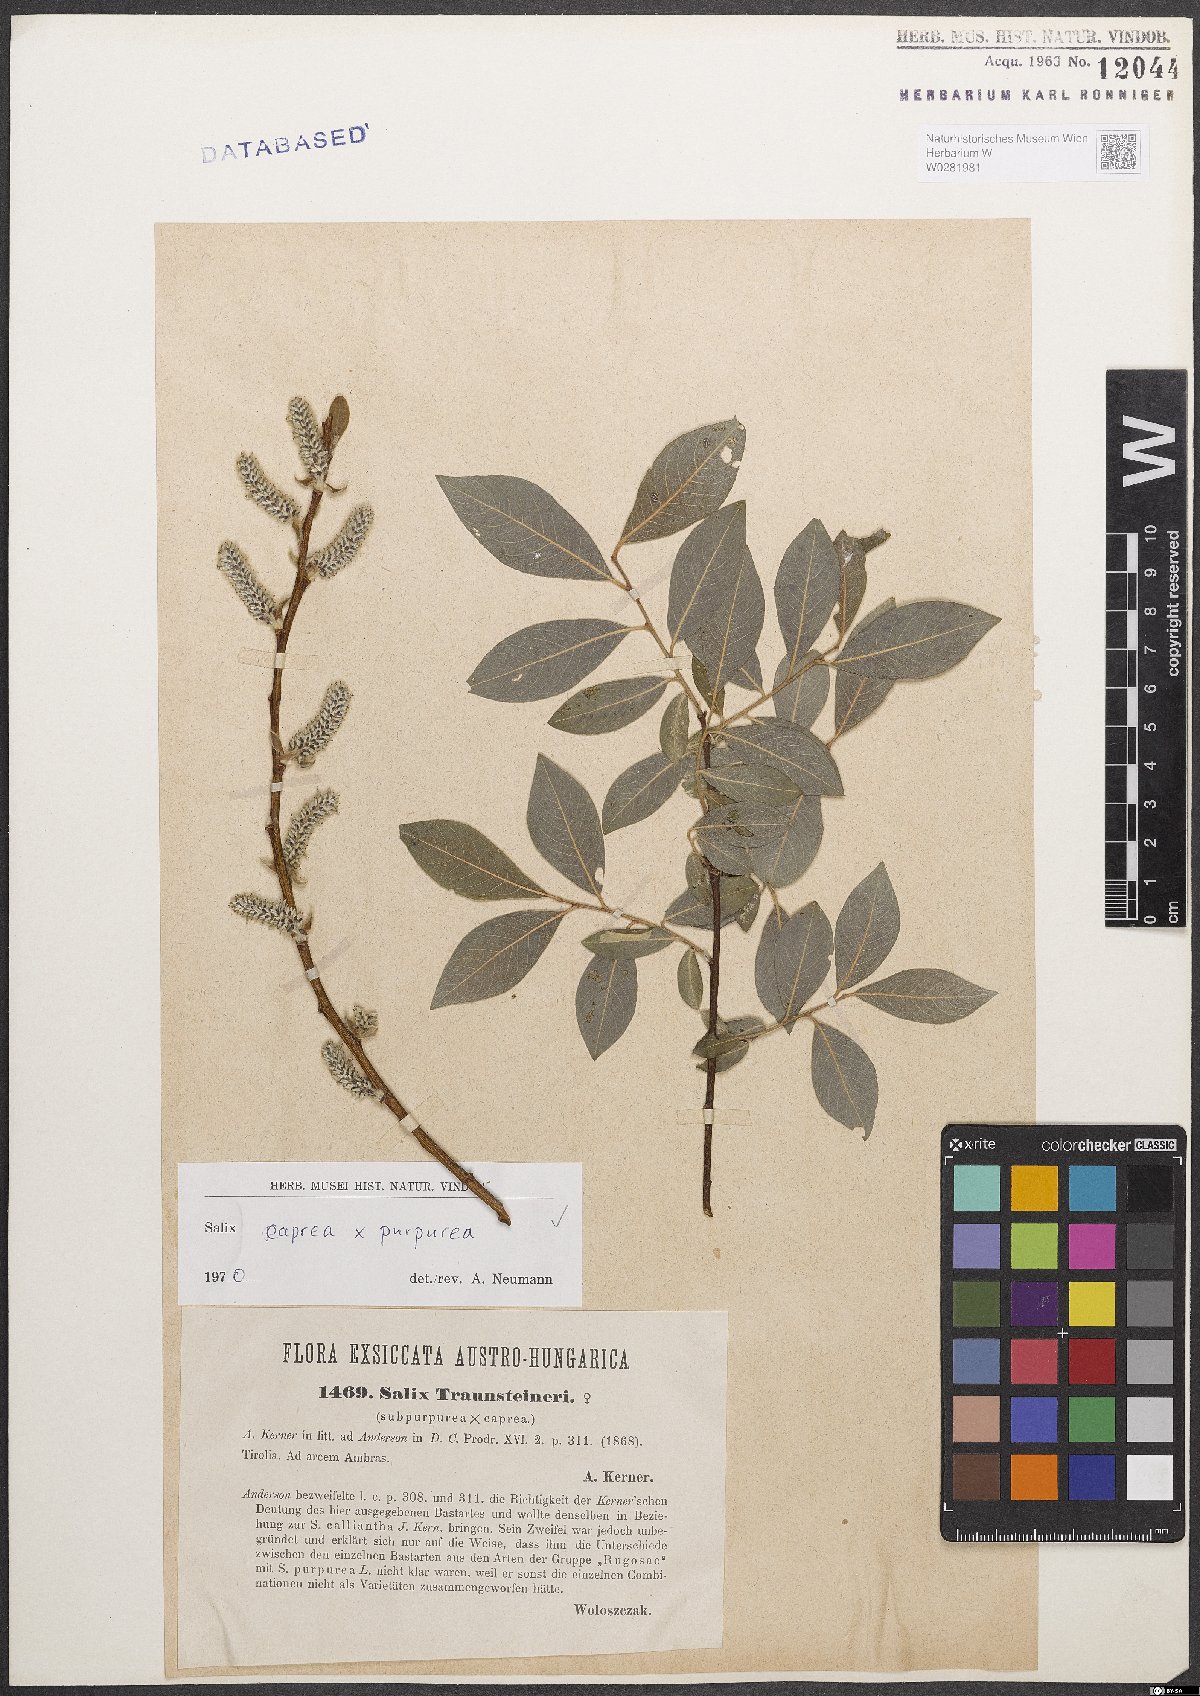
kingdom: Plantae
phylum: Tracheophyta
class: Magnoliopsida
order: Malpighiales
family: Salicaceae
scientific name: Salicaceae
